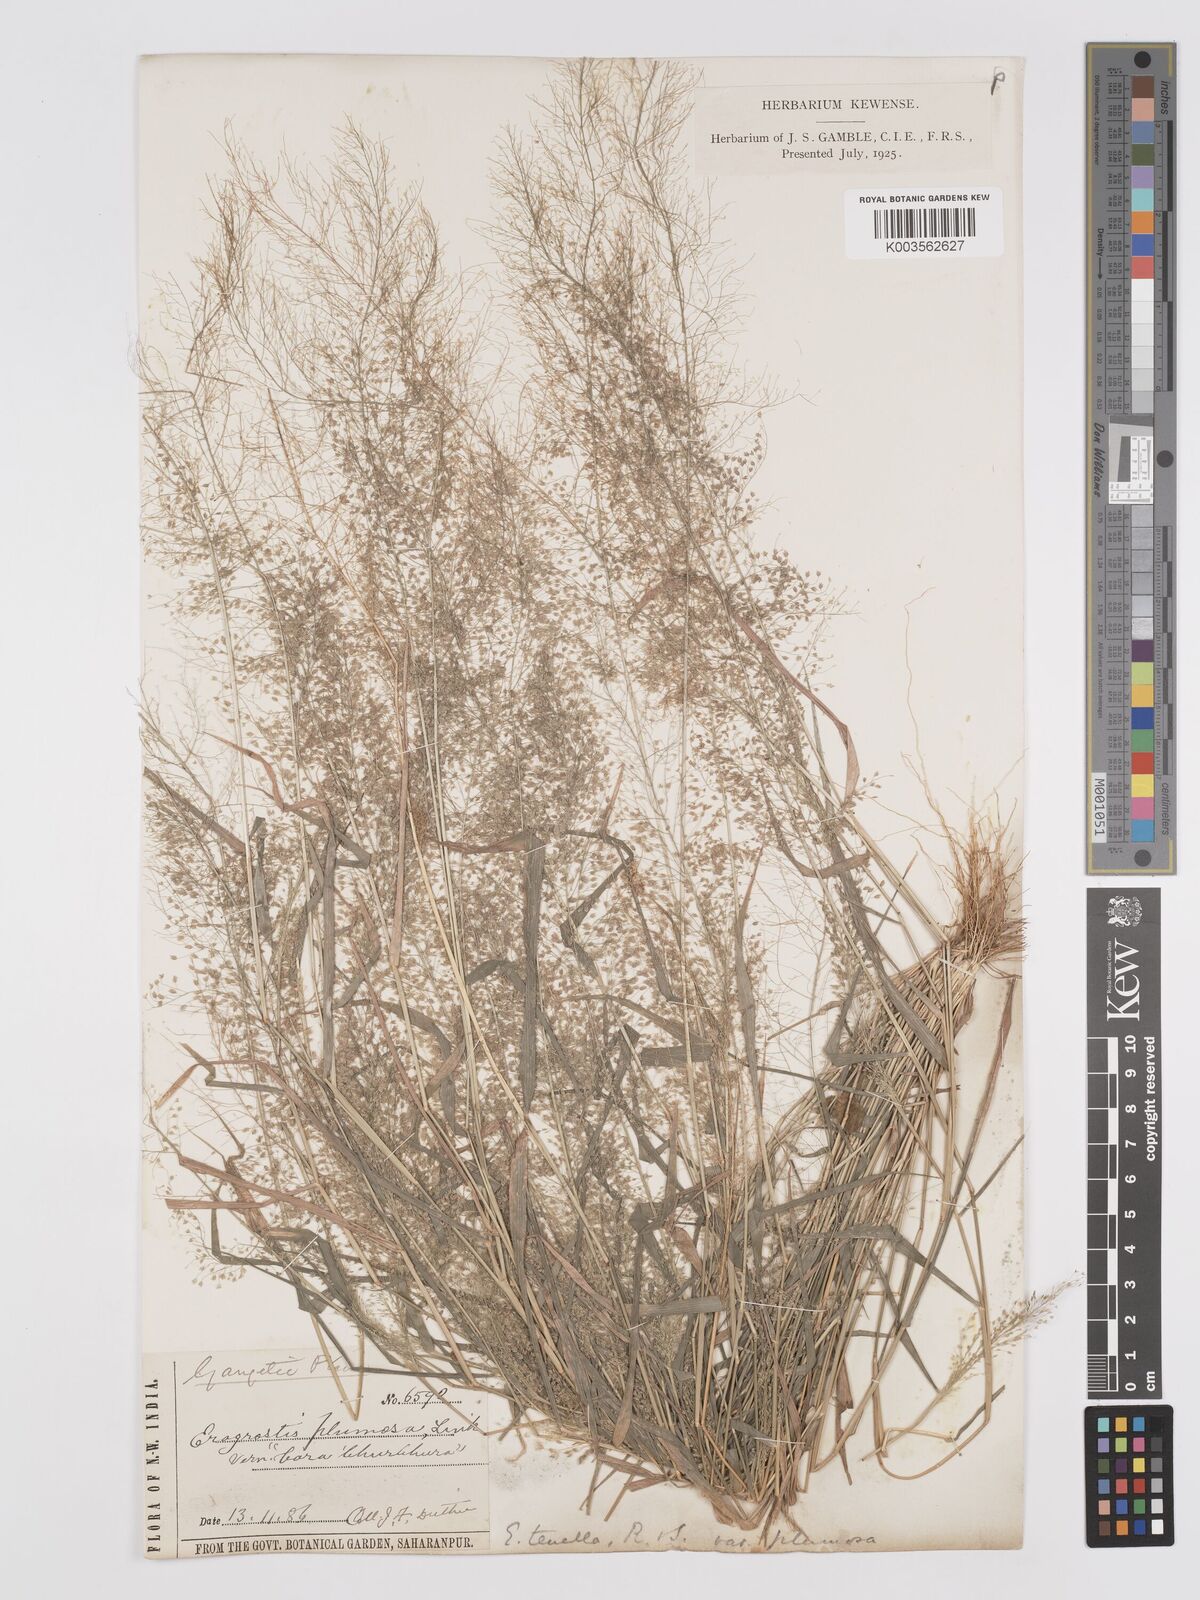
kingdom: Plantae
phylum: Tracheophyta
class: Liliopsida
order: Poales
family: Poaceae
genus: Eragrostis
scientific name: Eragrostis tenella
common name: Japanese lovegrass
